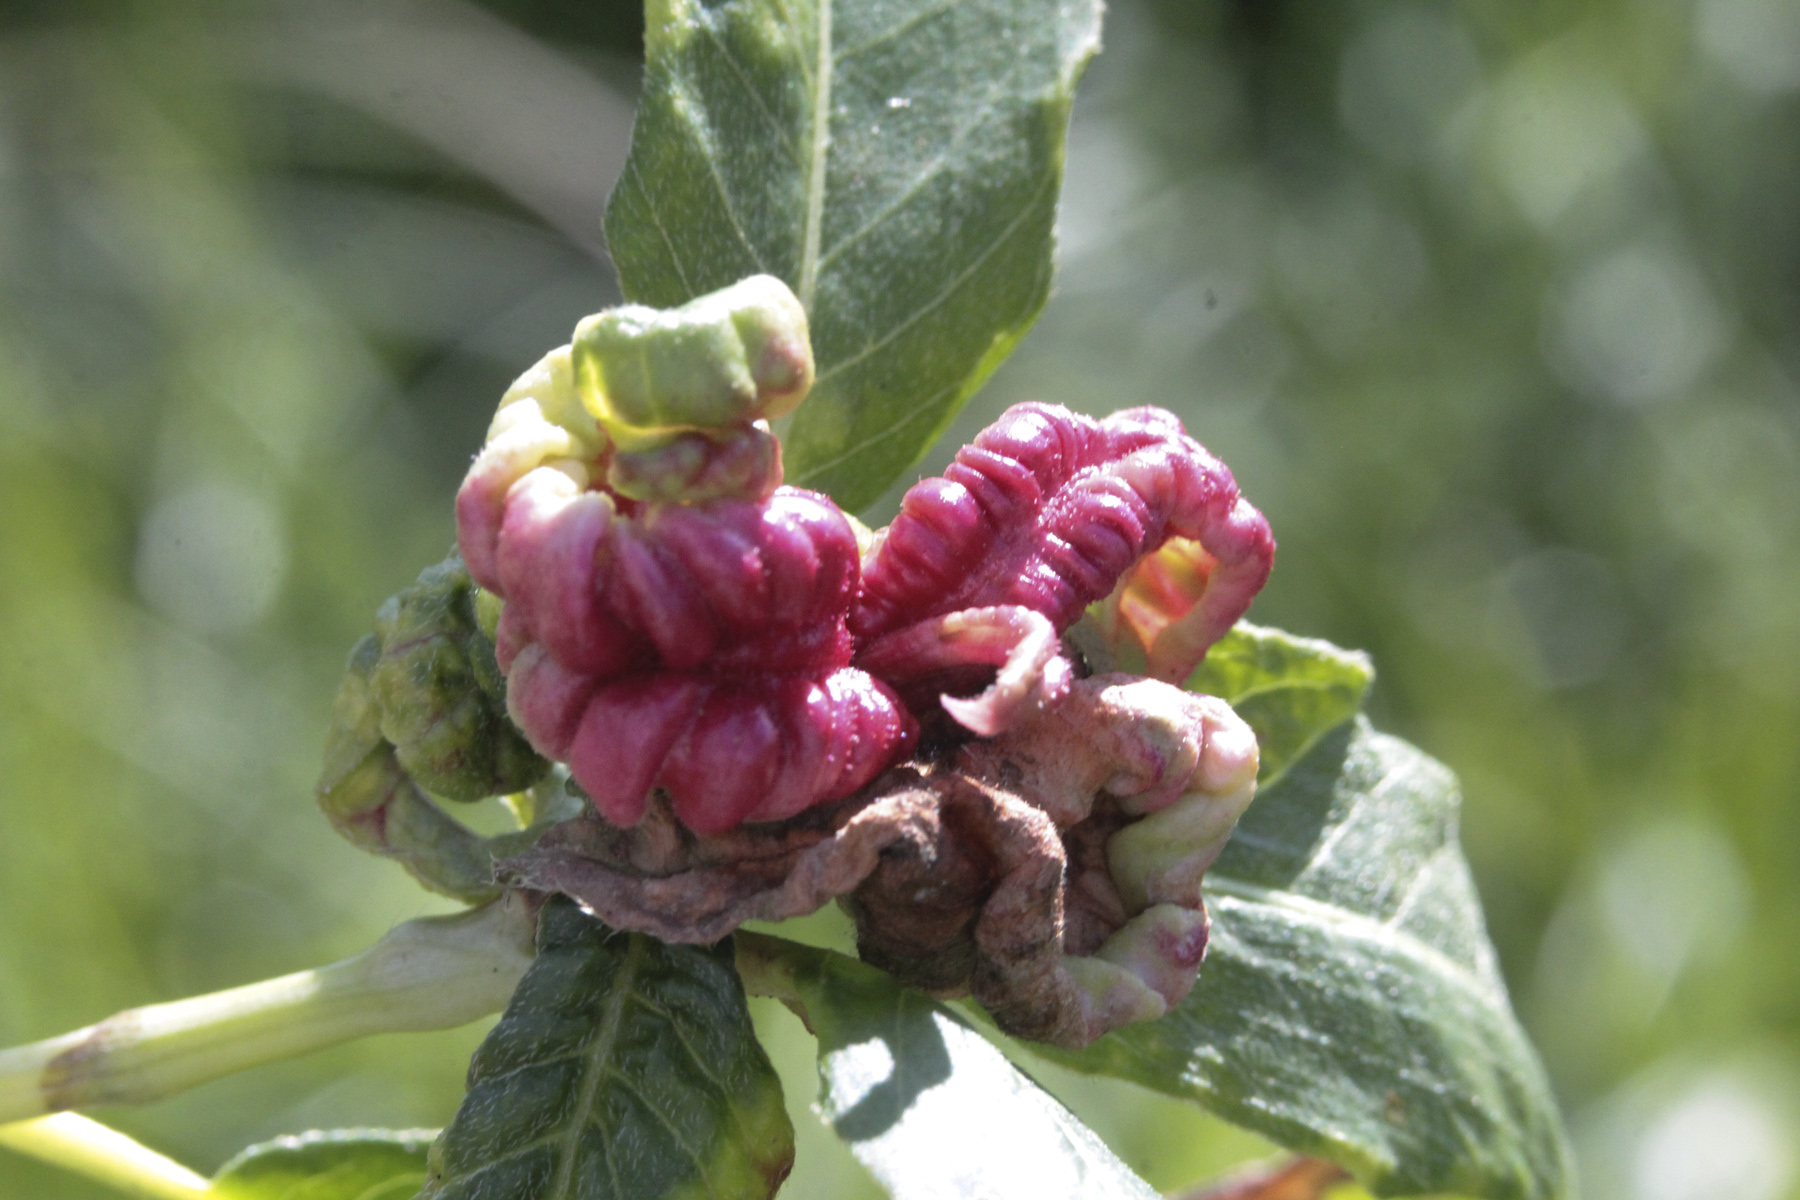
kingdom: Plantae
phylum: Tracheophyta
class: Magnoliopsida
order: Caryophyllales
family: Polygonaceae
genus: Persicaria
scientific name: Persicaria amphibia
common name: Amphibious bistort
